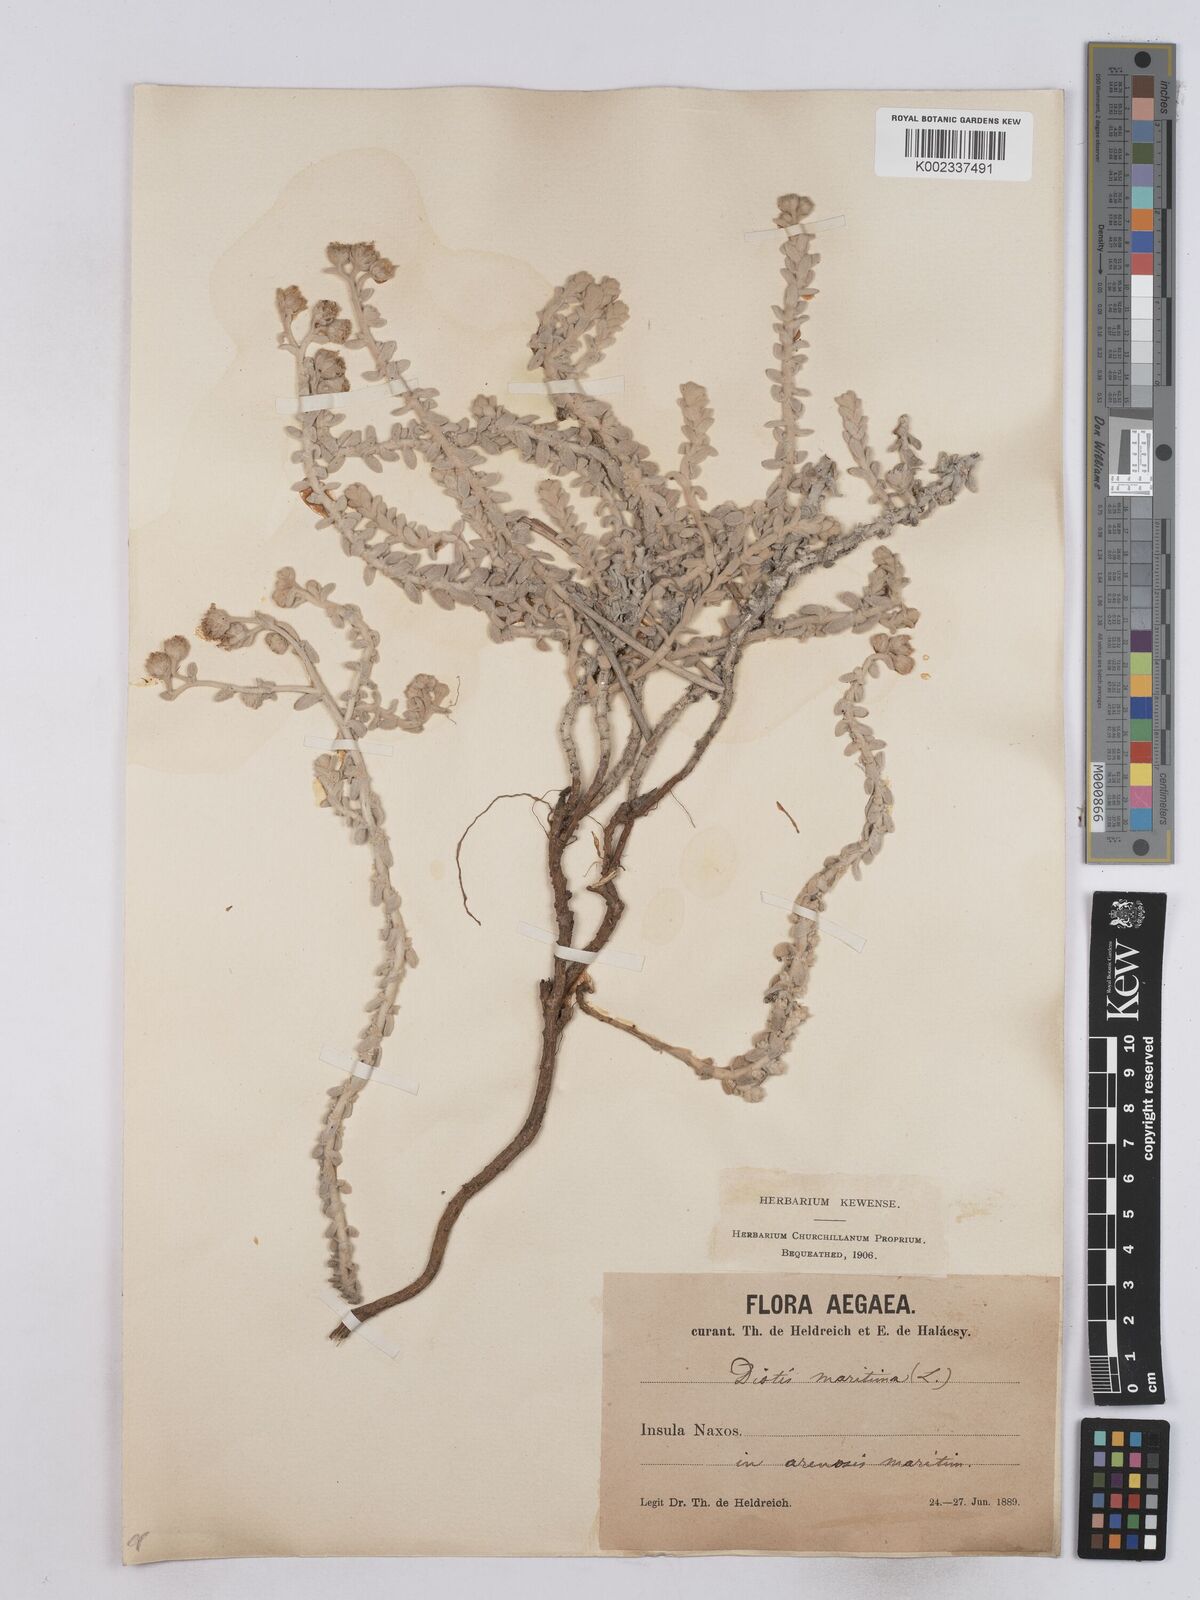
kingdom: Plantae
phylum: Tracheophyta
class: Magnoliopsida
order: Asterales
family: Asteraceae
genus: Achillea
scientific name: Achillea maritima
